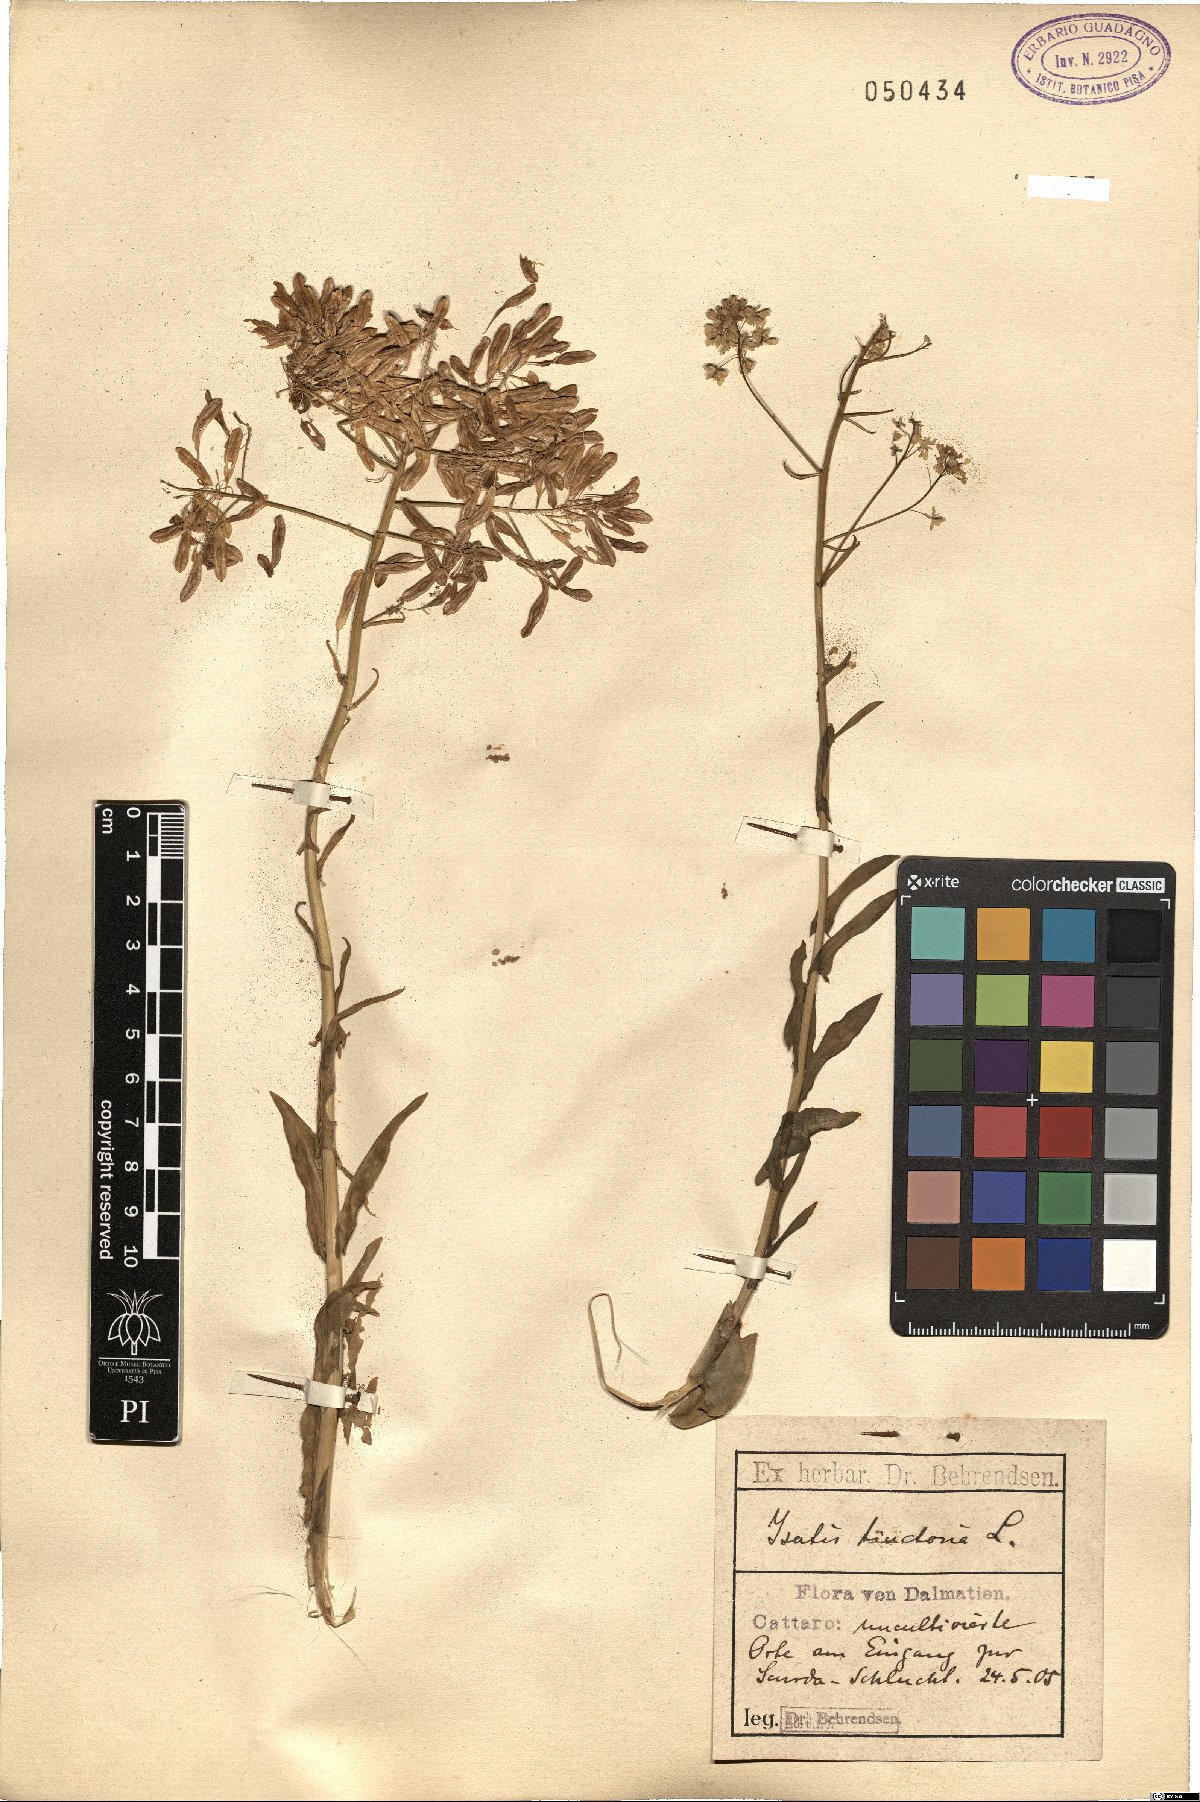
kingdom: Plantae
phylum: Tracheophyta
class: Magnoliopsida
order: Brassicales
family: Brassicaceae
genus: Isatis
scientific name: Isatis tinctoria
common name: Woad
